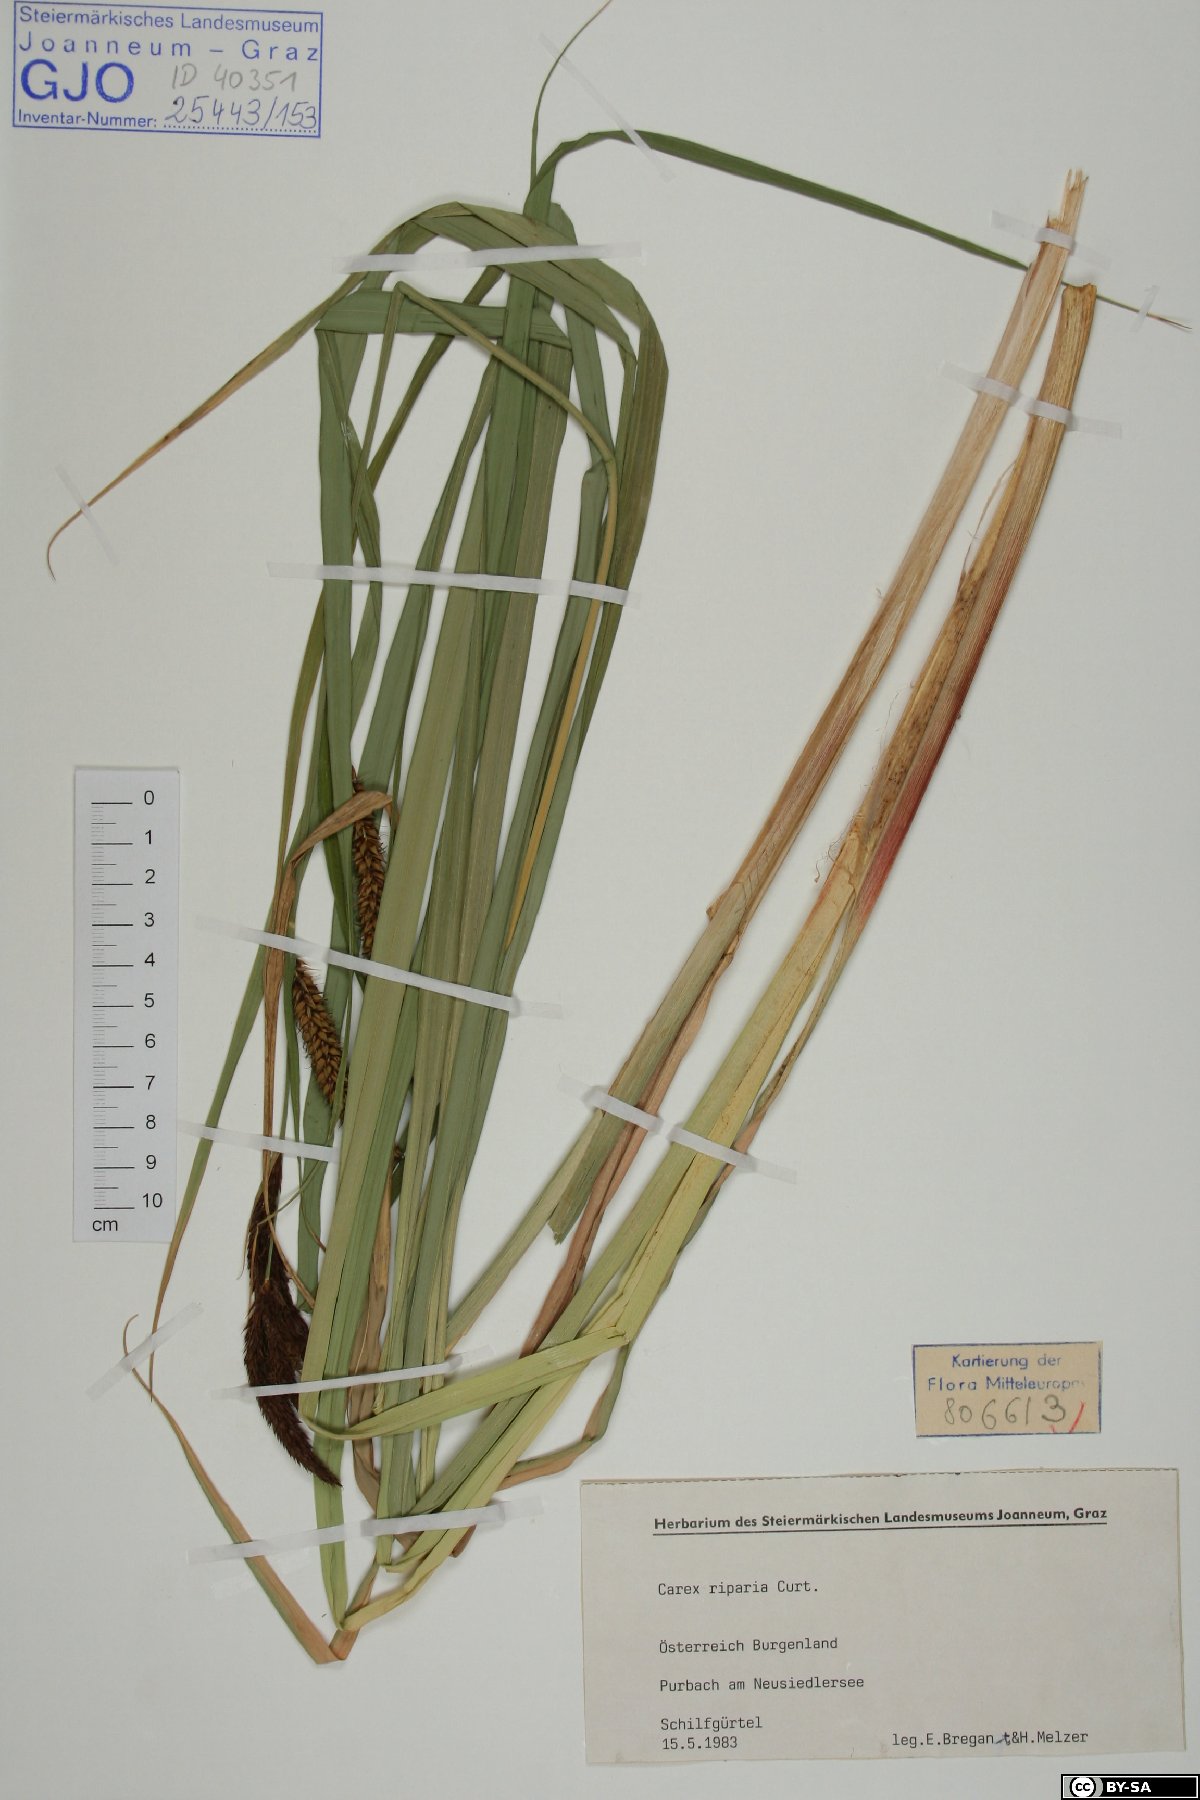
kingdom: Plantae
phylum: Tracheophyta
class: Liliopsida
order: Poales
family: Cyperaceae
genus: Carex
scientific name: Carex riparia
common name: Greater pond-sedge
